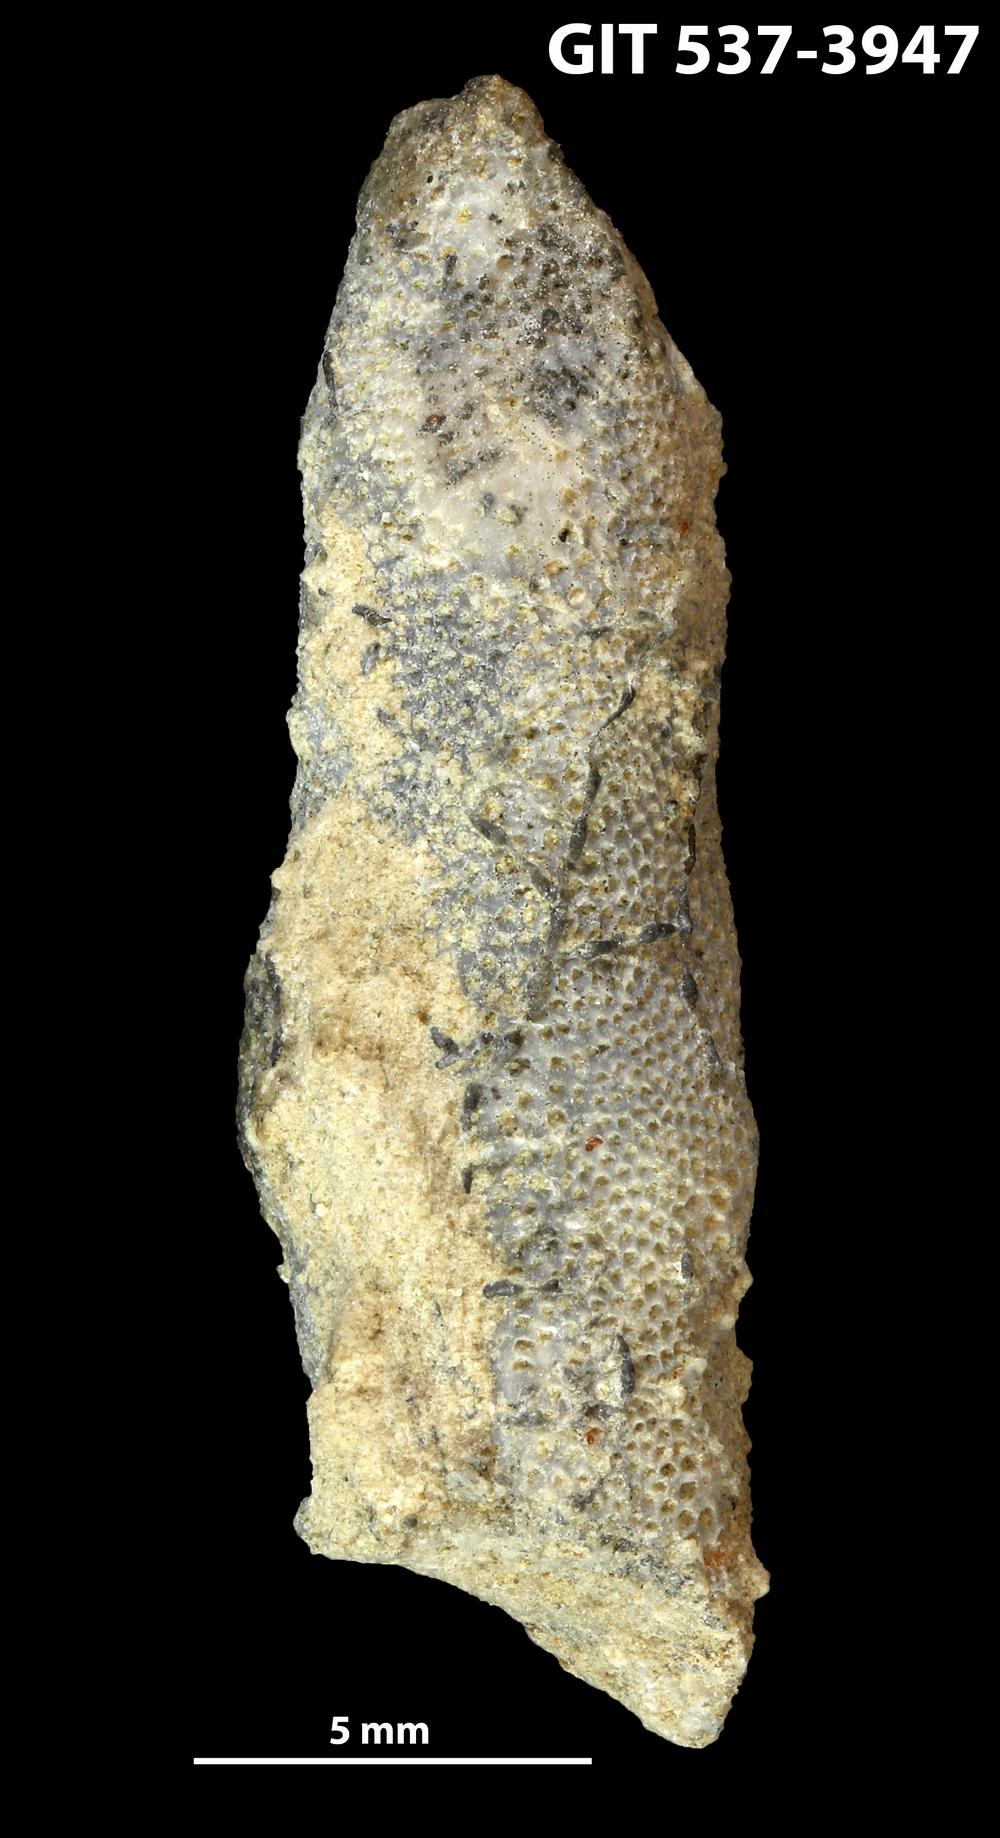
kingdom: Animalia
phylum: Bryozoa
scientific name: Bryozoa
